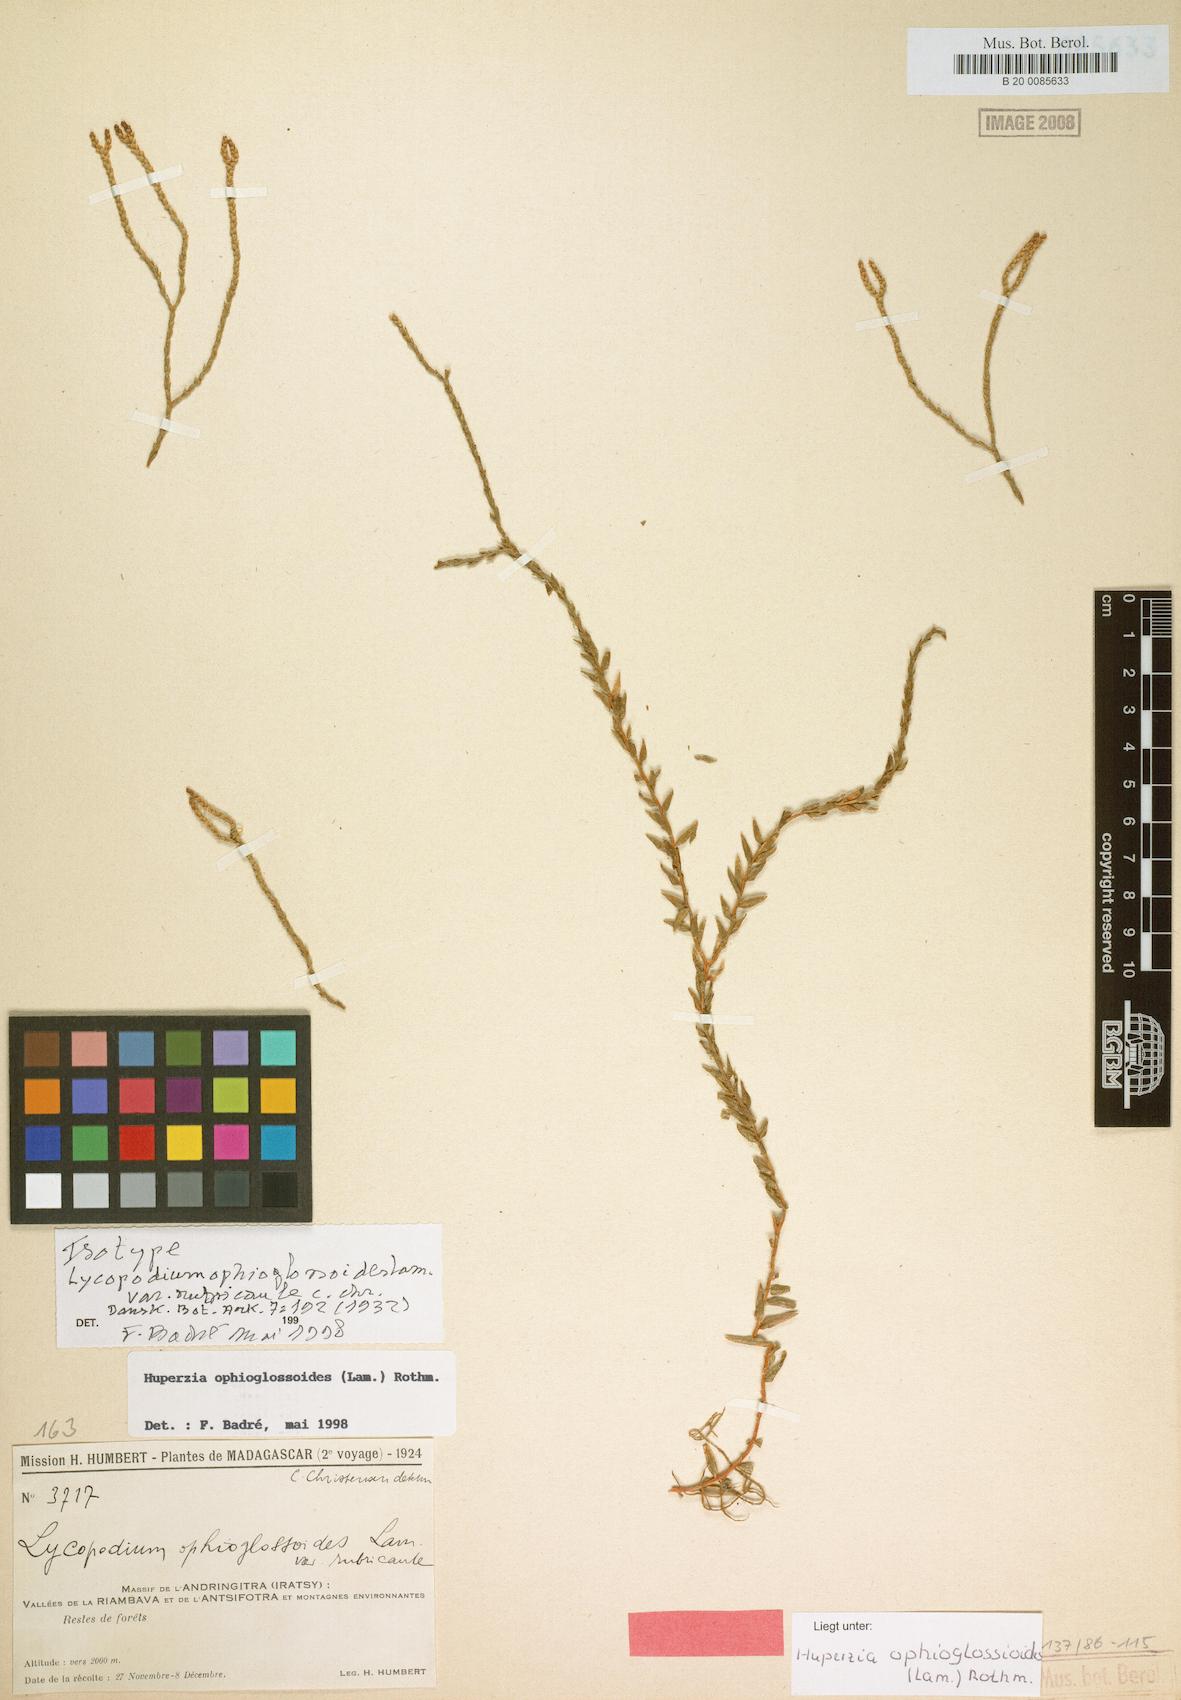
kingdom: Plantae
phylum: Tracheophyta
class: Lycopodiopsida
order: Lycopodiales
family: Lycopodiaceae
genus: Phlegmariurus
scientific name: Phlegmariurus ophioglossoides
